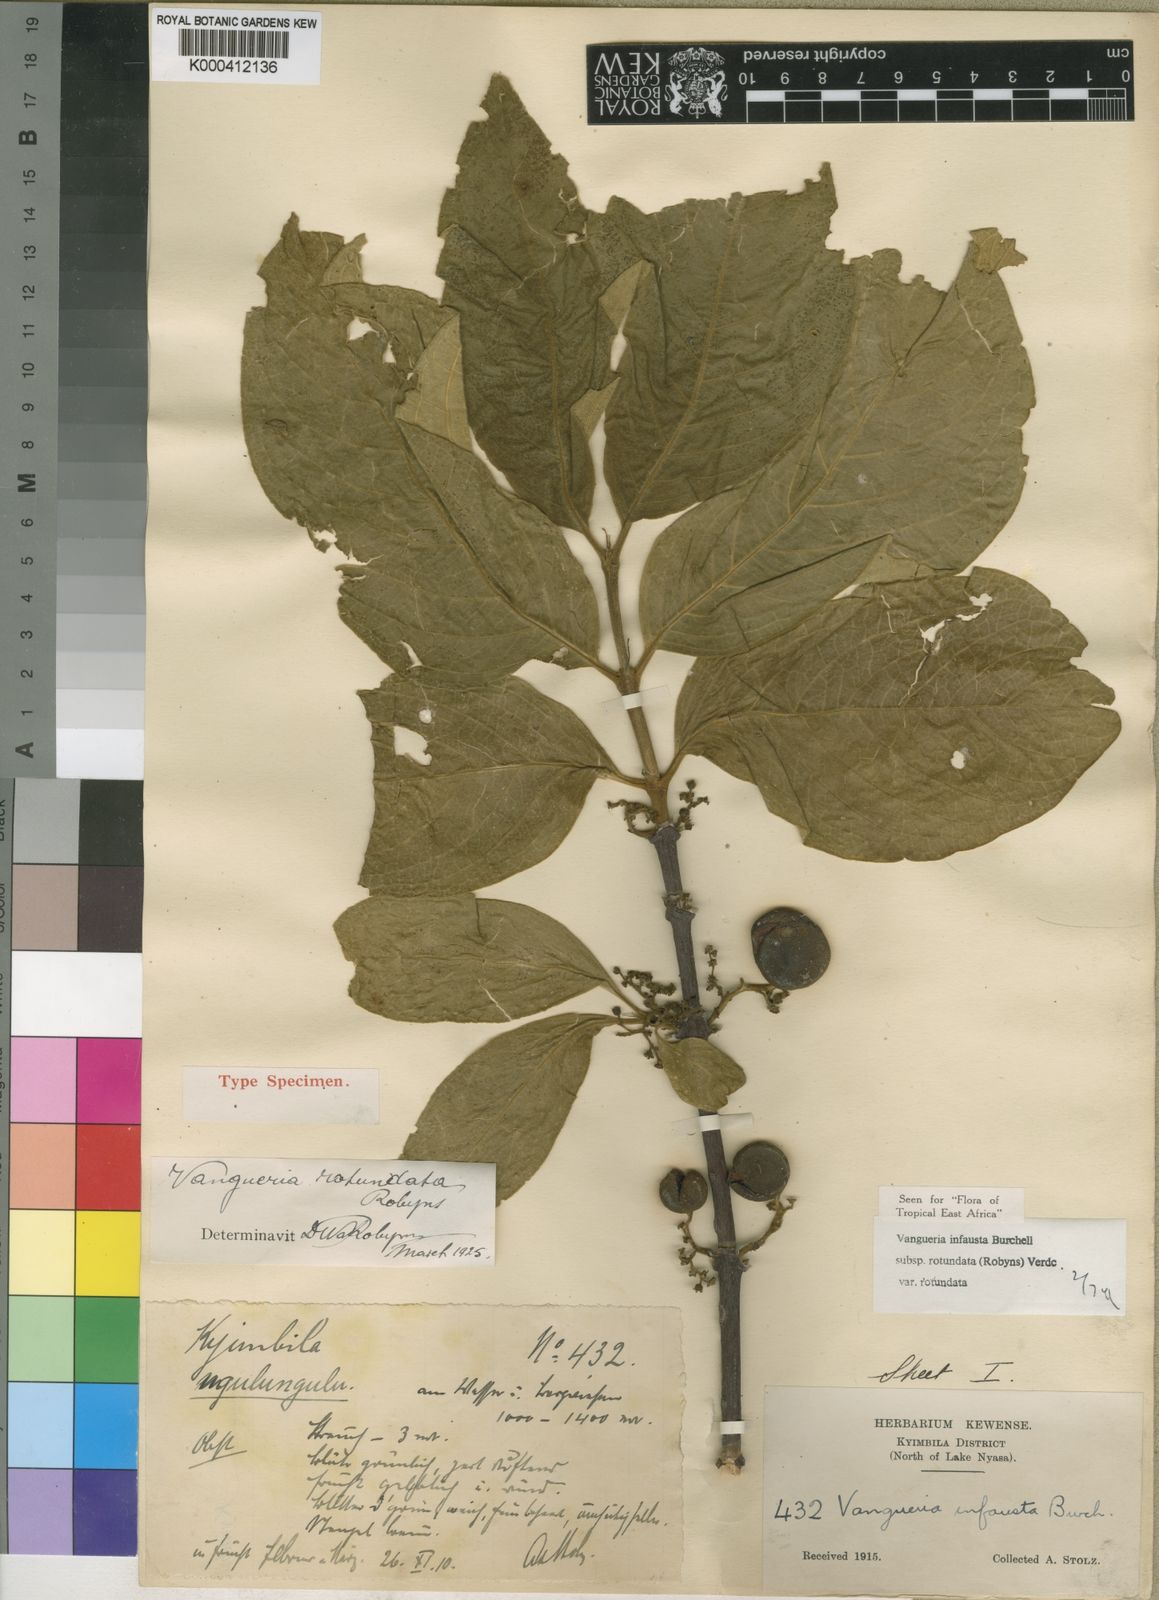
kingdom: Plantae
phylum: Tracheophyta
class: Magnoliopsida
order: Gentianales
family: Rubiaceae
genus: Vangueria
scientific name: Vangueria infausta
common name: Medlar
